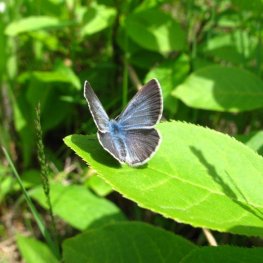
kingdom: Animalia
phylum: Arthropoda
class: Insecta
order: Lepidoptera
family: Lycaenidae
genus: Glaucopsyche
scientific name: Glaucopsyche lygdamus
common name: Silvery Blue
